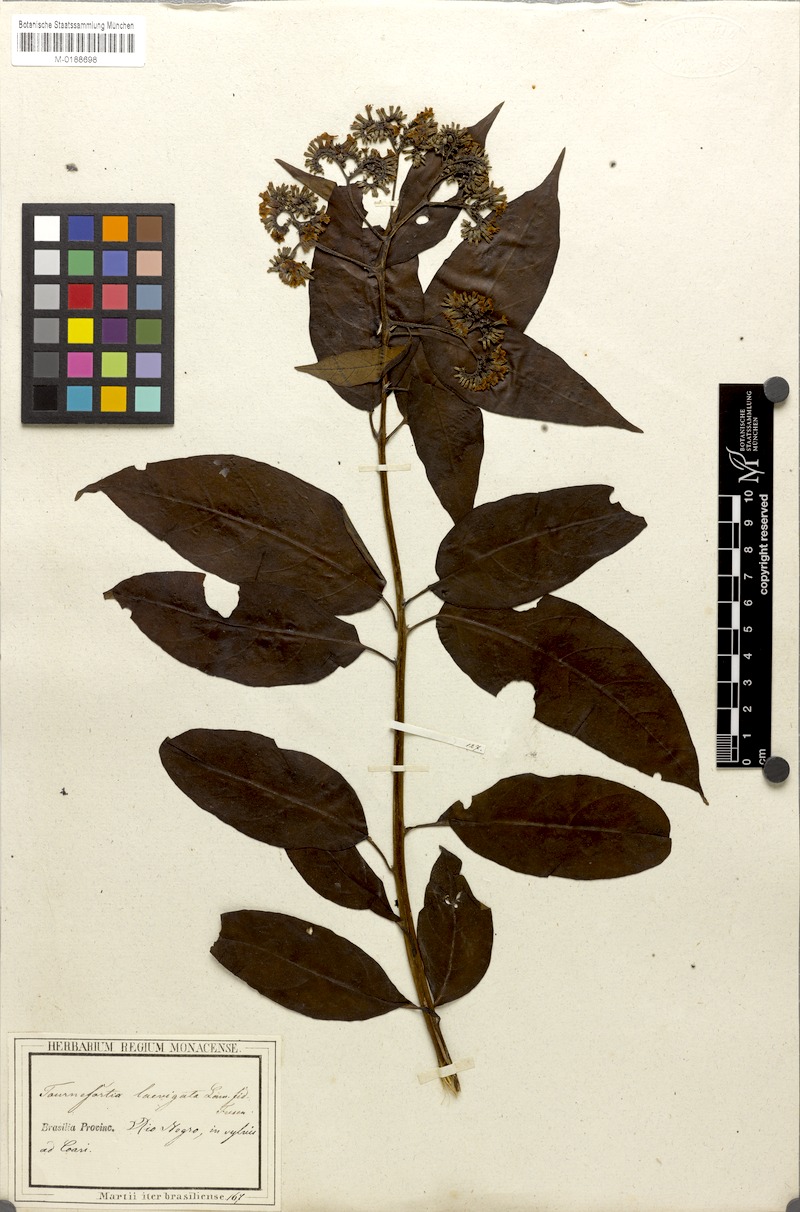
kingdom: Plantae
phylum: Tracheophyta
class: Magnoliopsida
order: Boraginales
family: Heliotropiaceae
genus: Heliotropium
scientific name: Heliotropium verdcourtii
